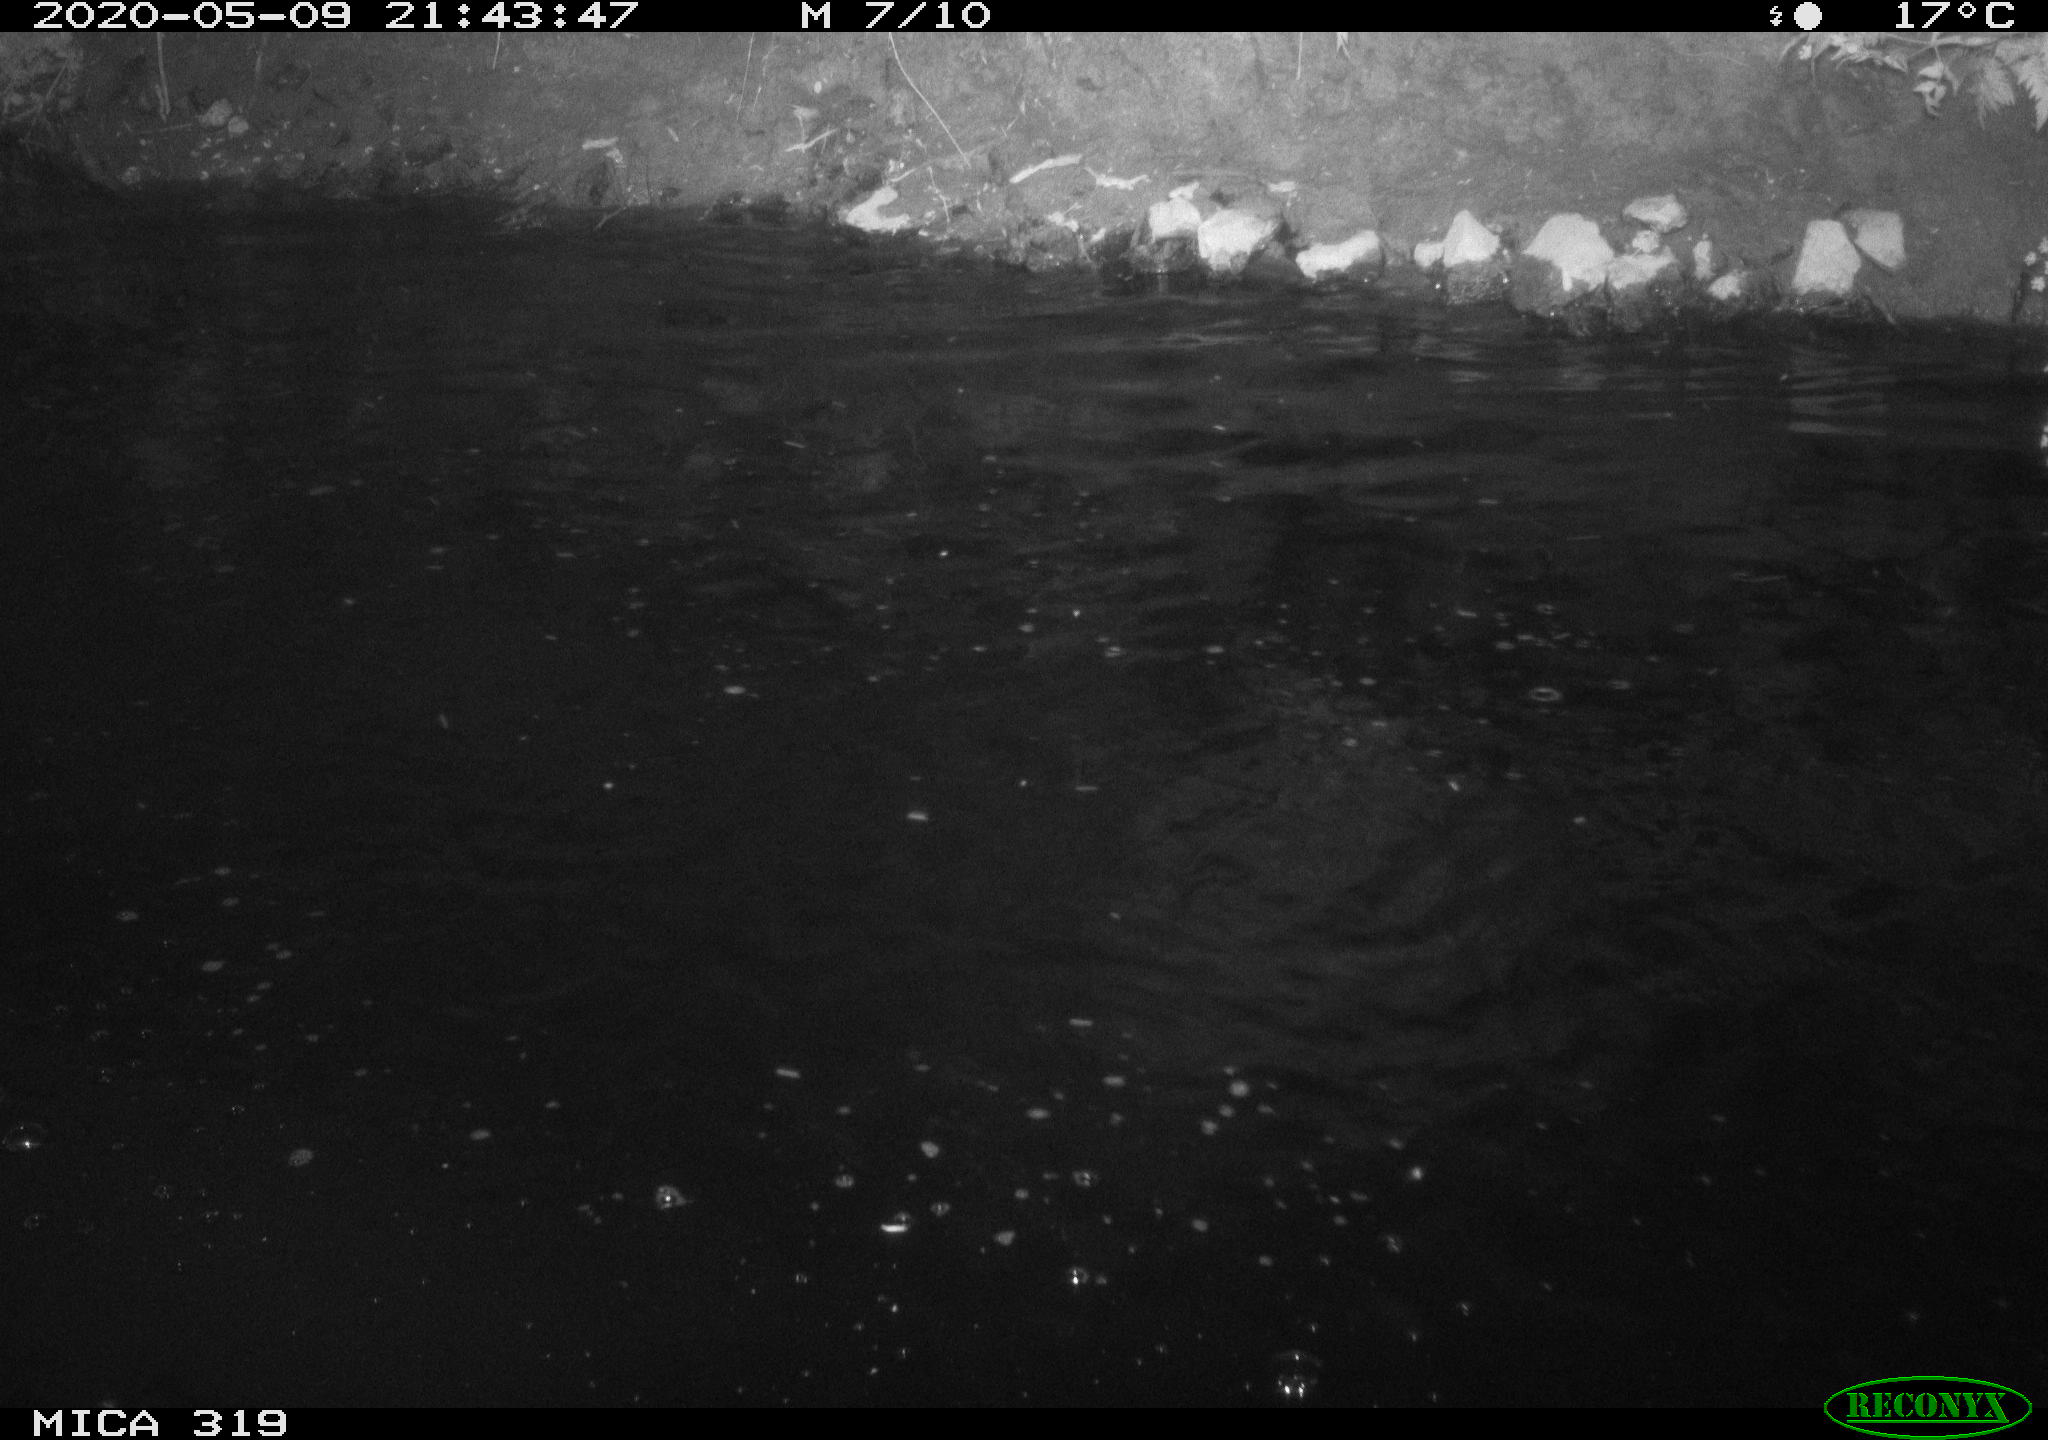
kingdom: Animalia
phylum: Chordata
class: Aves
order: Anseriformes
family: Anatidae
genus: Anas
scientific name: Anas platyrhynchos
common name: Mallard
